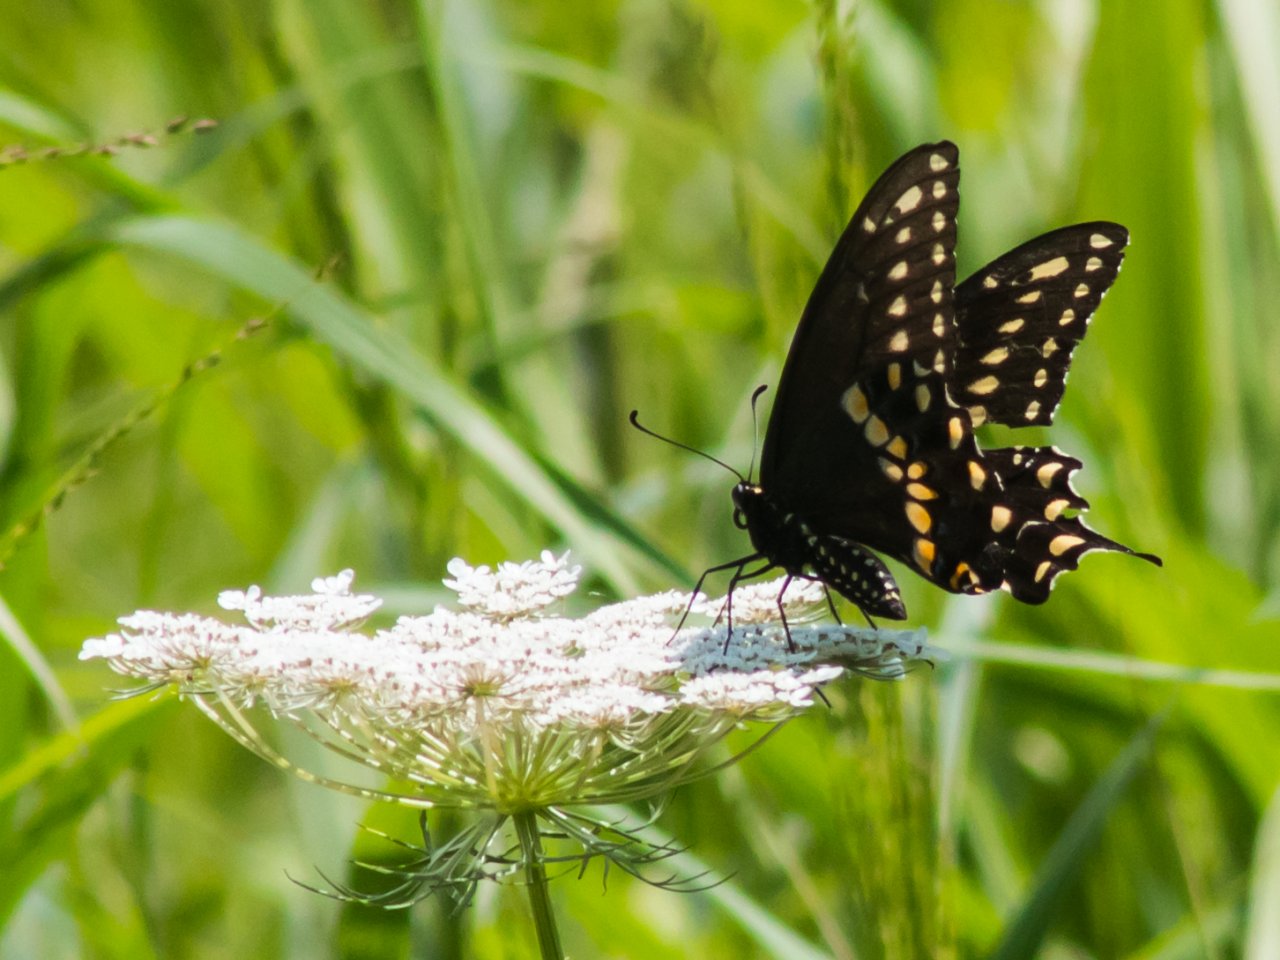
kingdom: Animalia
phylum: Arthropoda
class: Insecta
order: Lepidoptera
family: Papilionidae
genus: Papilio
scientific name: Papilio polyxenes
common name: Black Swallowtail
